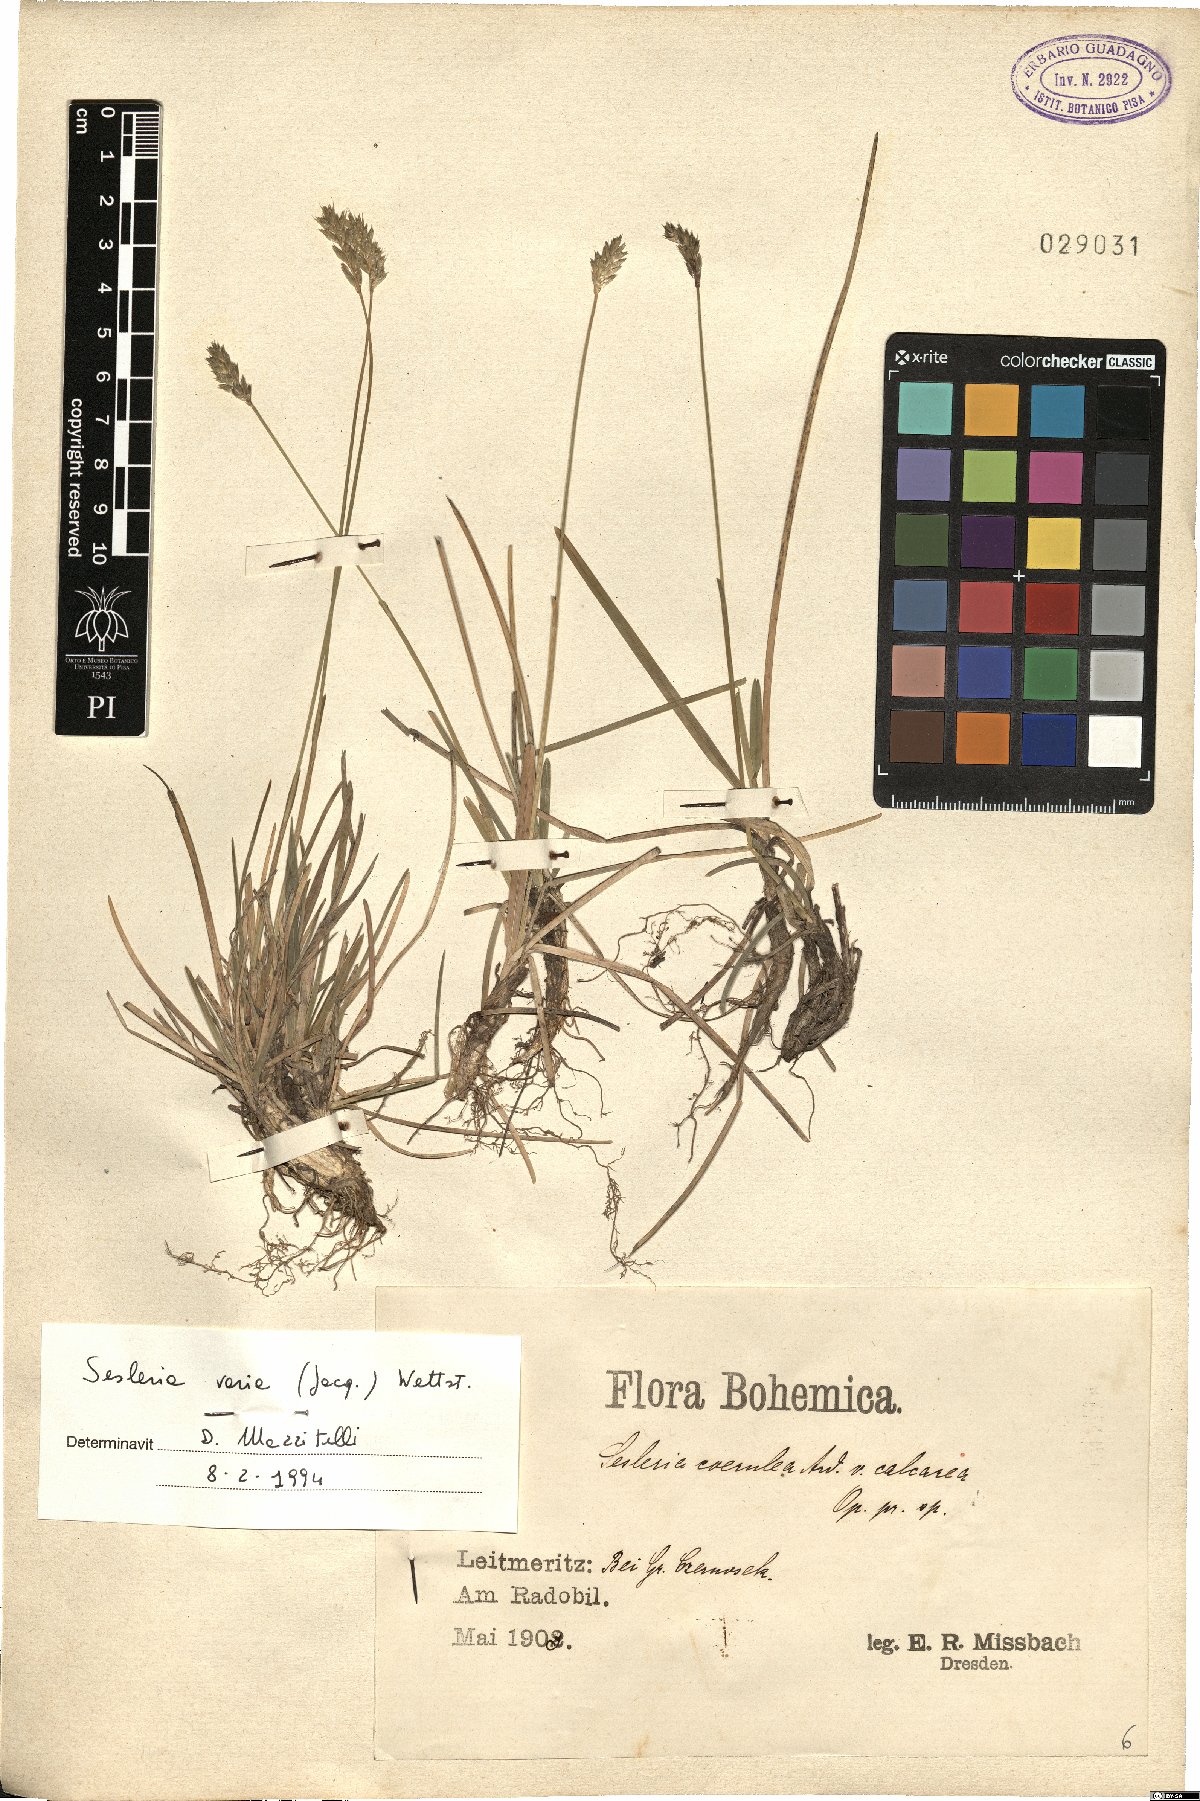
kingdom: Plantae
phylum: Tracheophyta
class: Liliopsida
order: Poales
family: Poaceae
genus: Sesleria
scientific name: Sesleria caerulea
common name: Blue moor-grass
